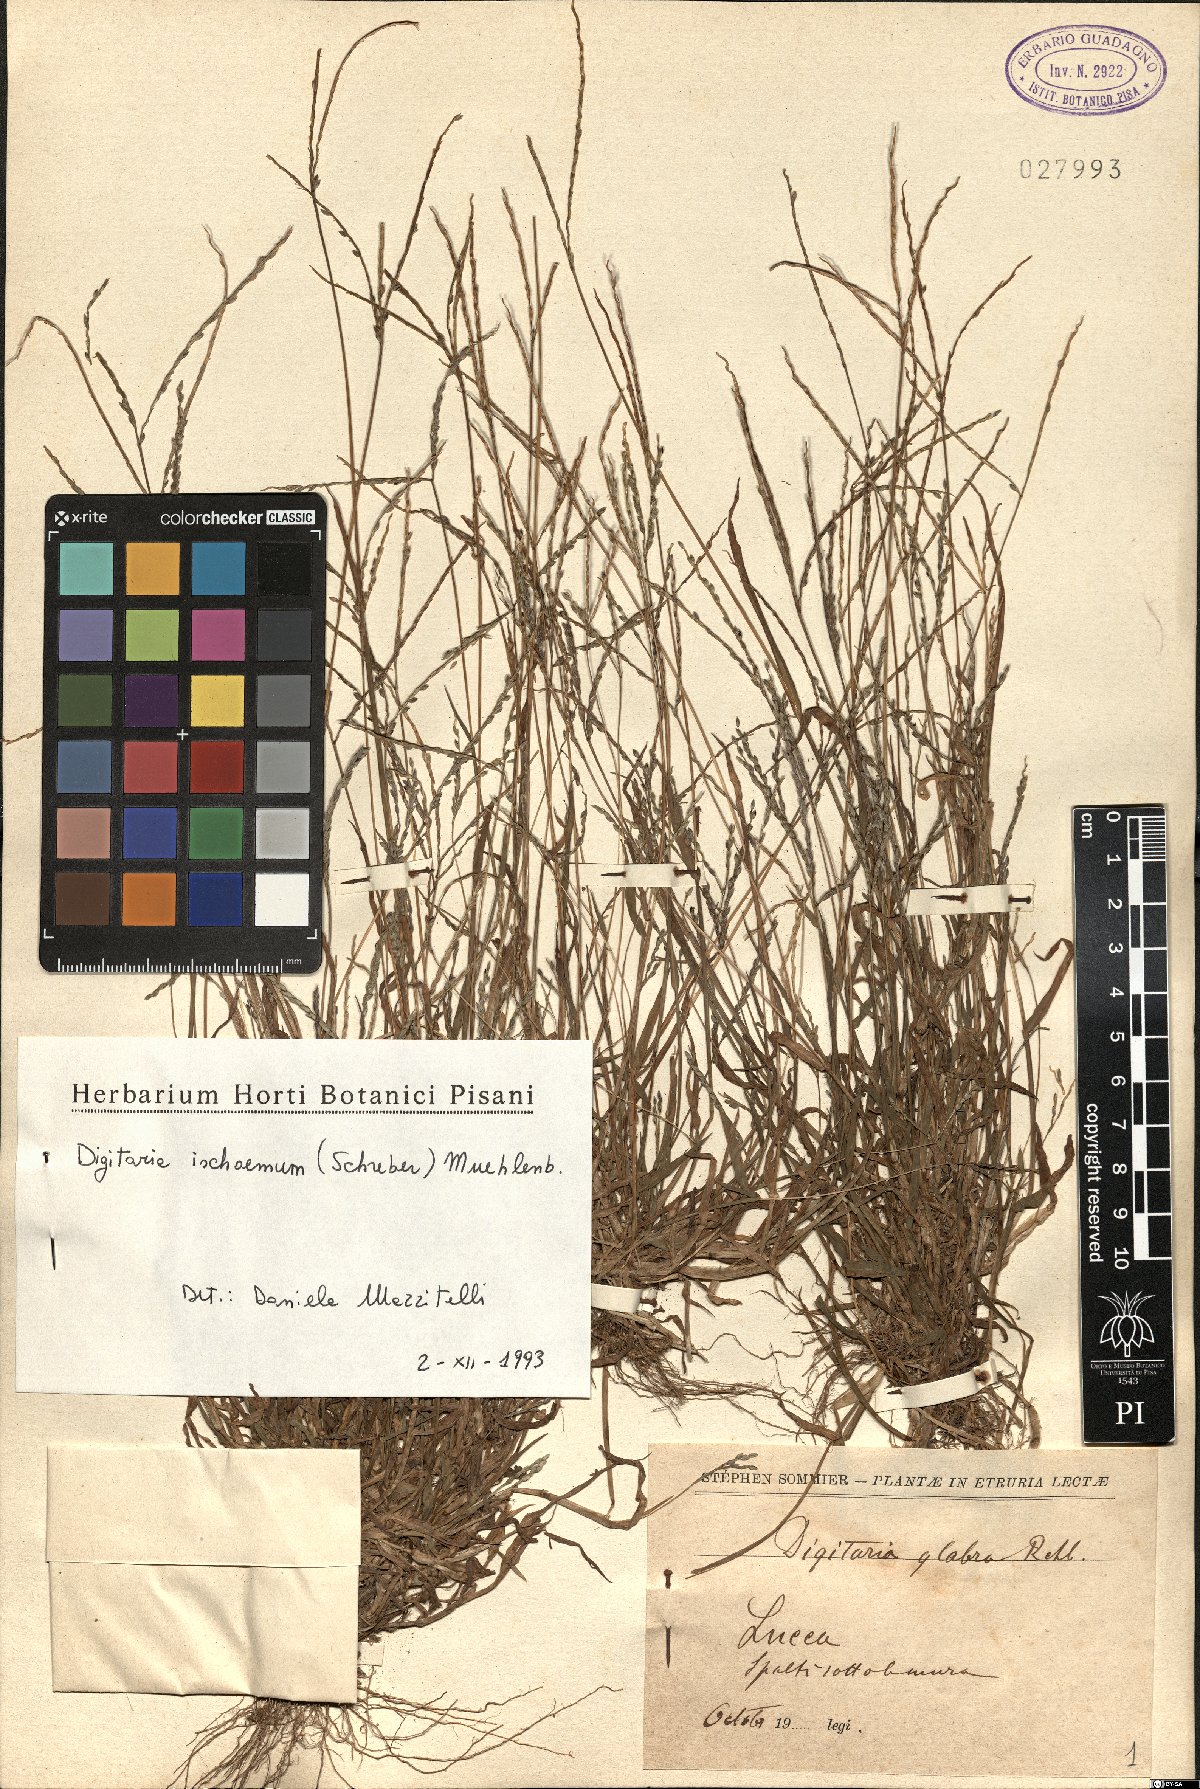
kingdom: Plantae
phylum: Tracheophyta
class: Liliopsida
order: Poales
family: Poaceae
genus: Digitaria
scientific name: Digitaria ischaemum
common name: Smooth crabgrass
